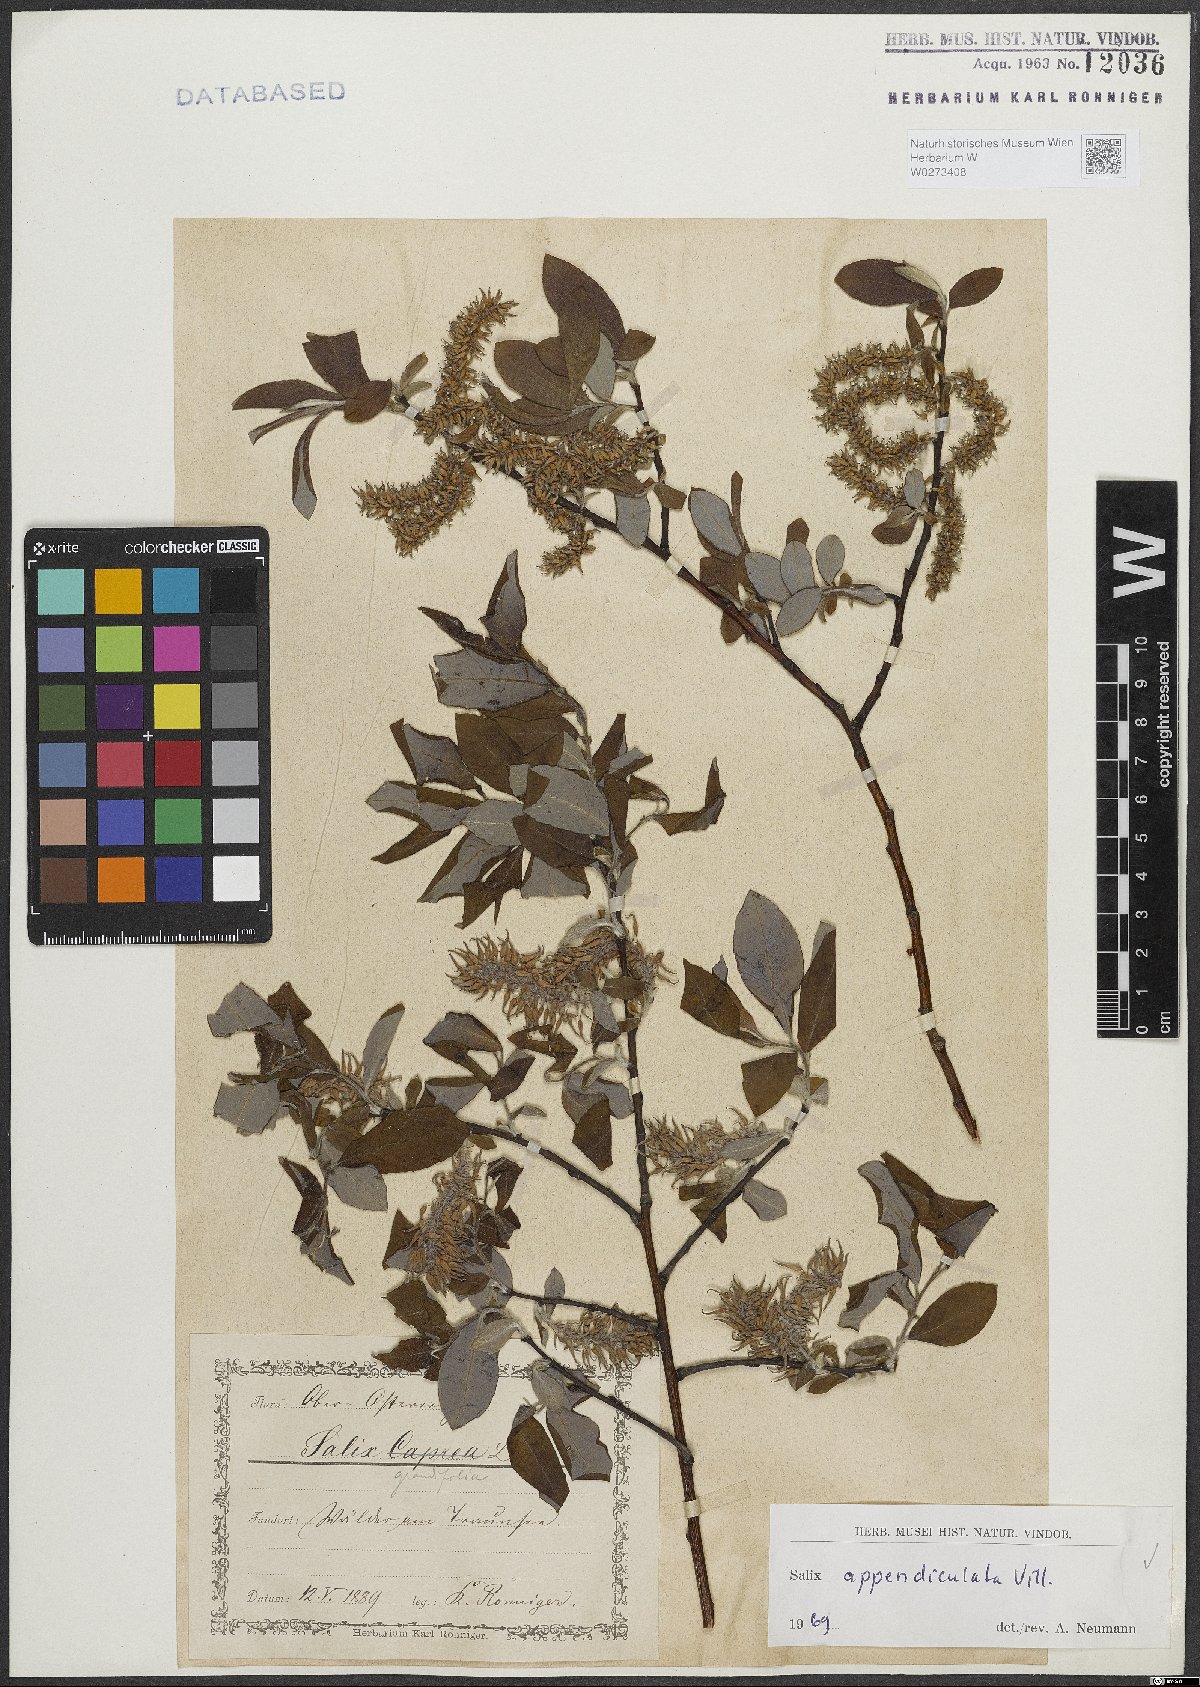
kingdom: Plantae
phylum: Tracheophyta
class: Magnoliopsida
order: Malpighiales
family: Salicaceae
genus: Salix
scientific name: Salix appendiculata
